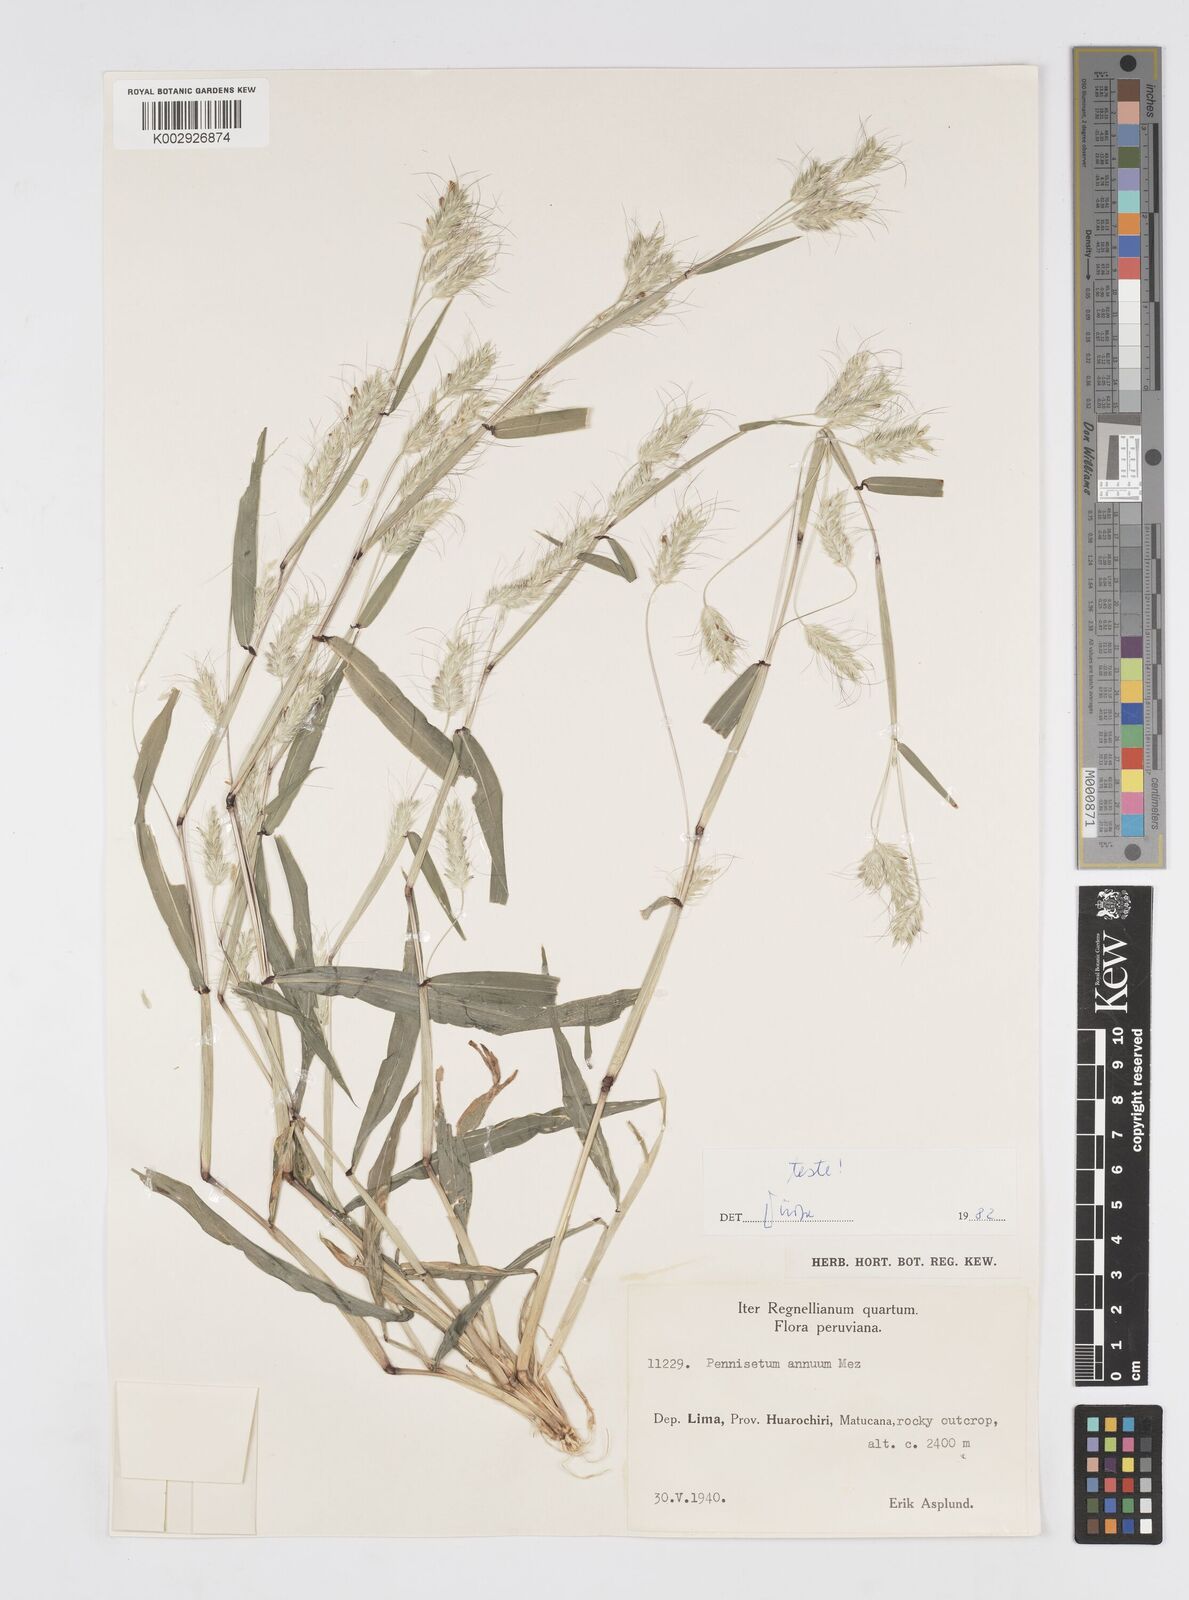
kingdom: Plantae
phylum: Tracheophyta
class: Liliopsida
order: Poales
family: Poaceae
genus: Cenchrus
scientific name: Cenchrus annuus
